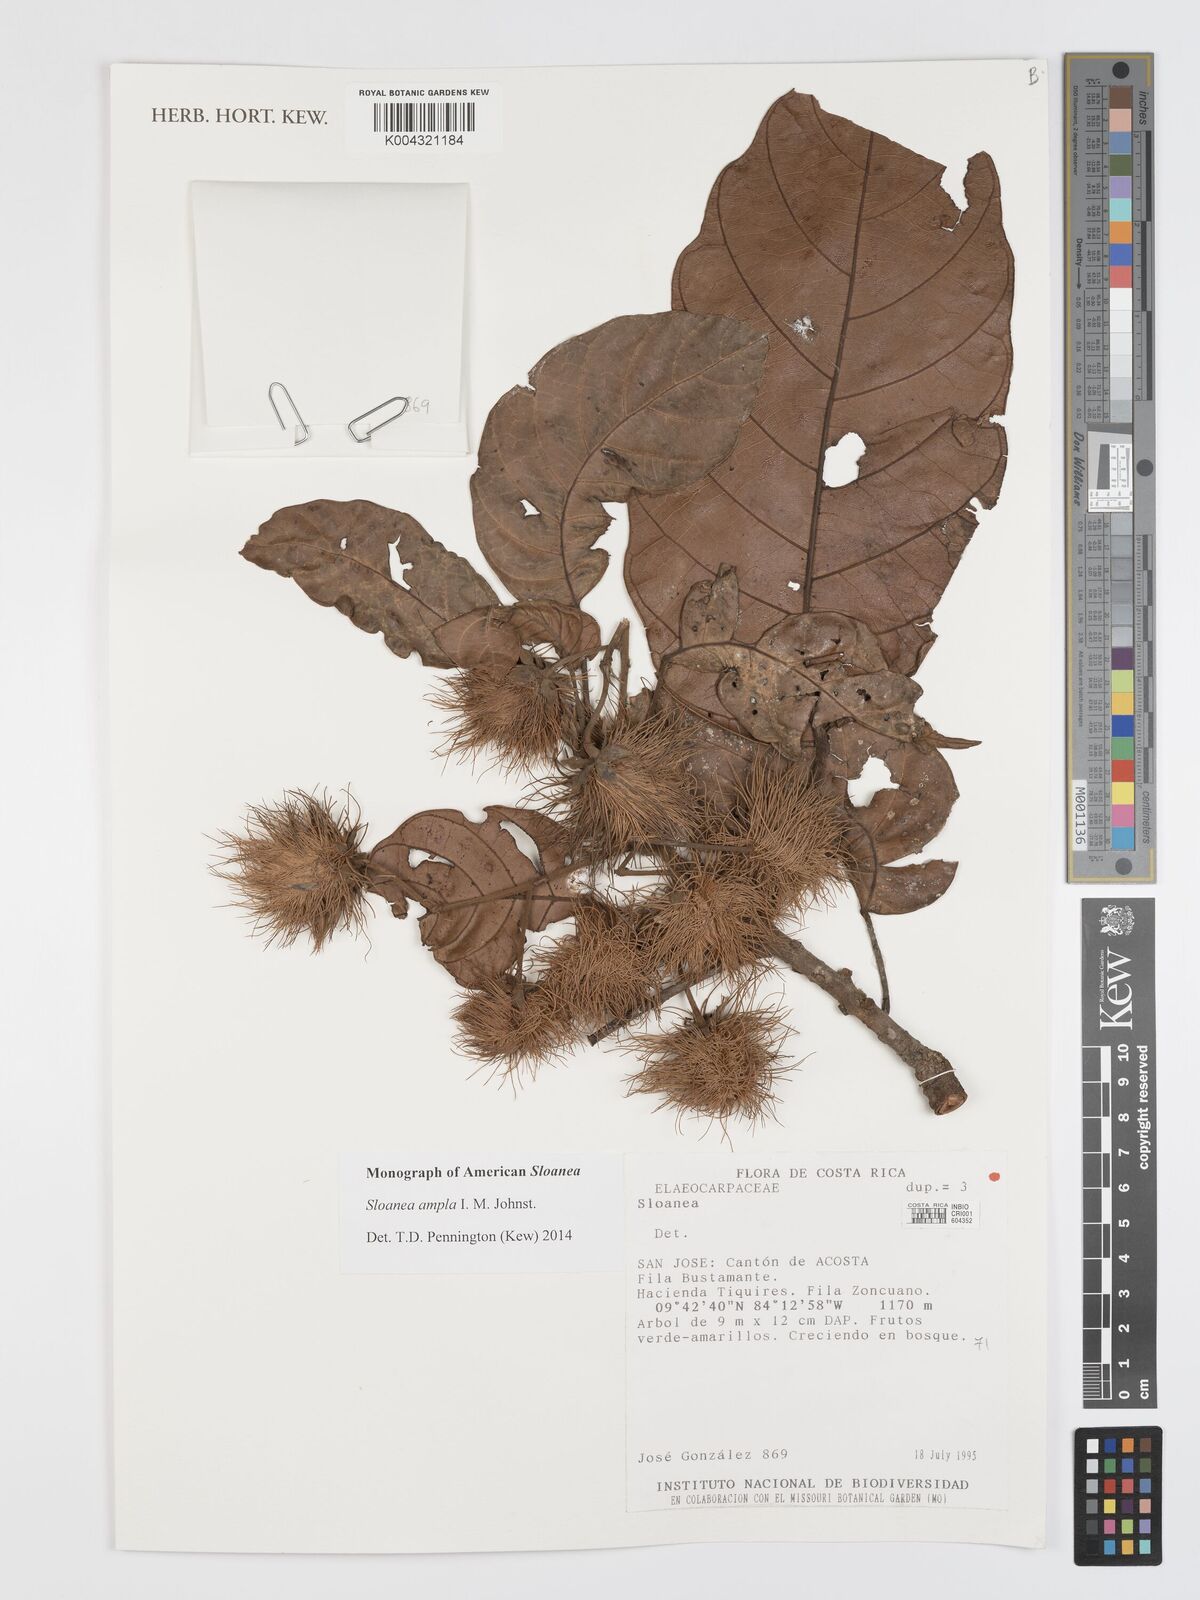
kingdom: Plantae
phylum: Tracheophyta
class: Magnoliopsida
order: Oxalidales
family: Elaeocarpaceae
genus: Sloanea
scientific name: Sloanea ampla
